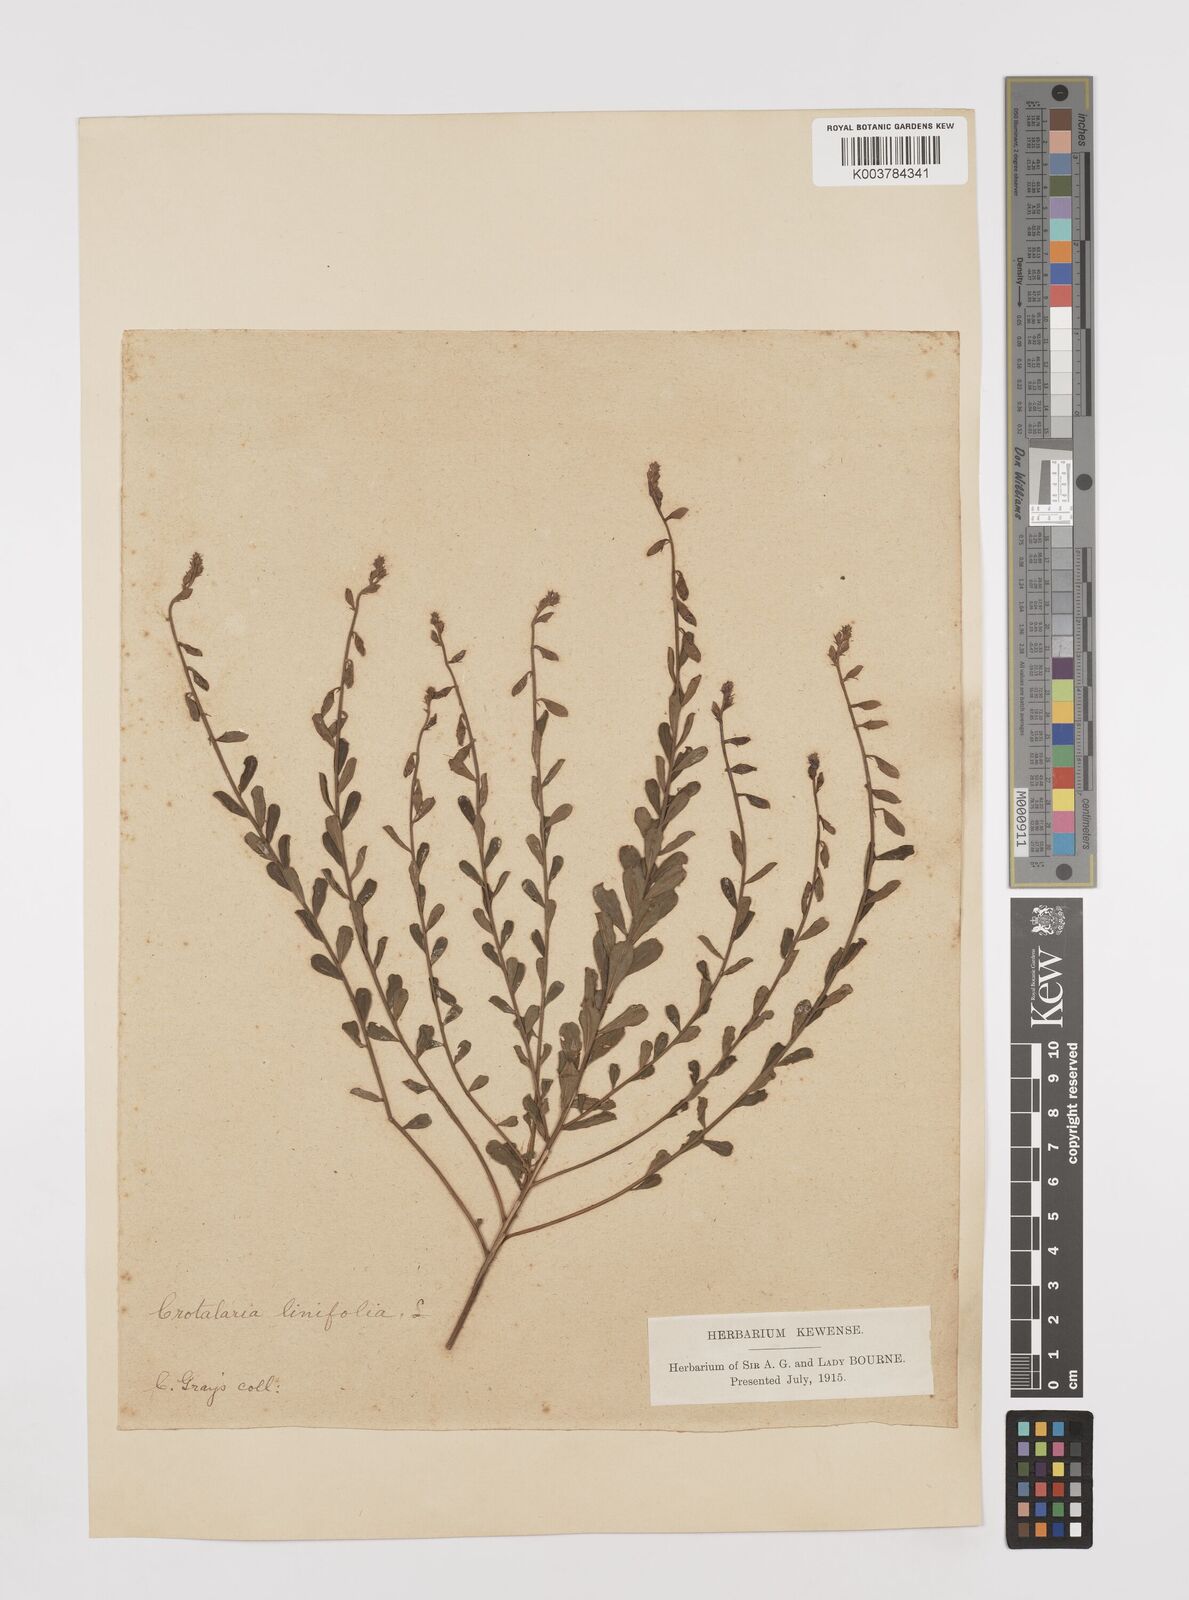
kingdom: Plantae
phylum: Tracheophyta
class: Magnoliopsida
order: Fabales
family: Fabaceae
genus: Crotalaria
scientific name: Crotalaria linifolia
